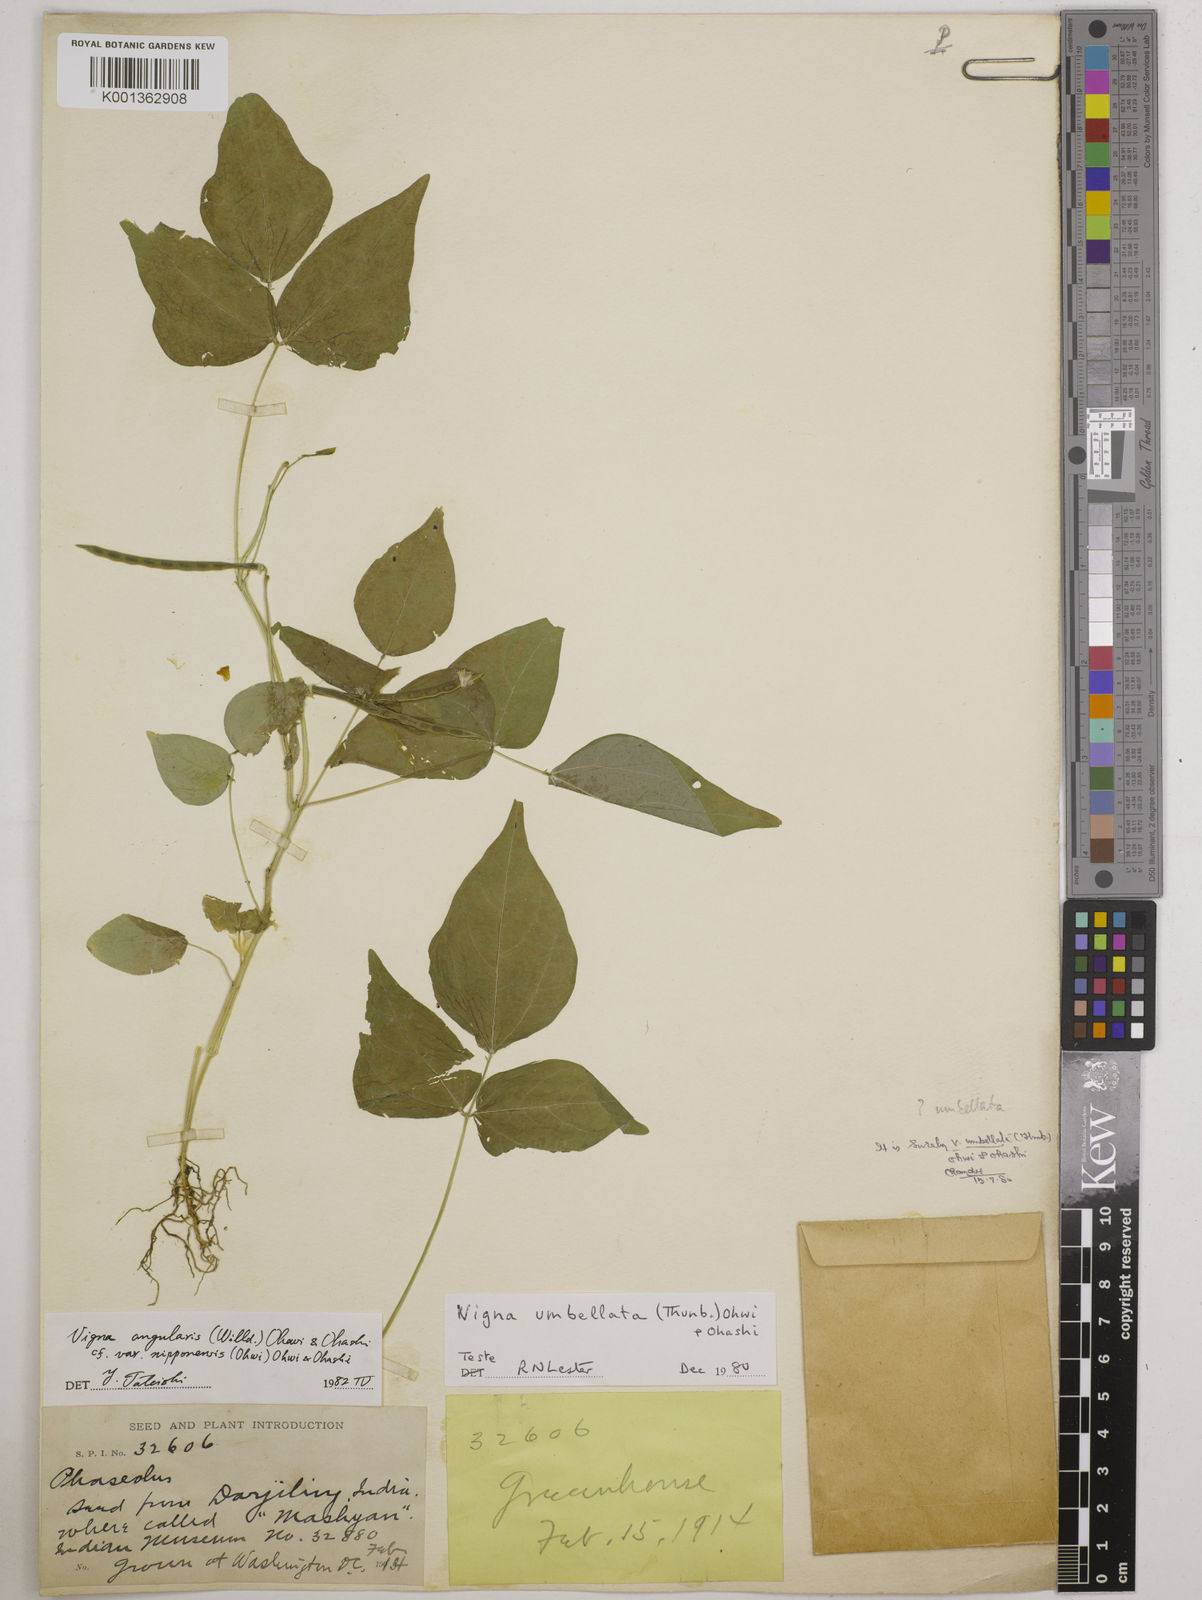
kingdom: Plantae
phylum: Tracheophyta
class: Magnoliopsida
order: Fabales
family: Fabaceae
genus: Vigna
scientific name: Vigna
